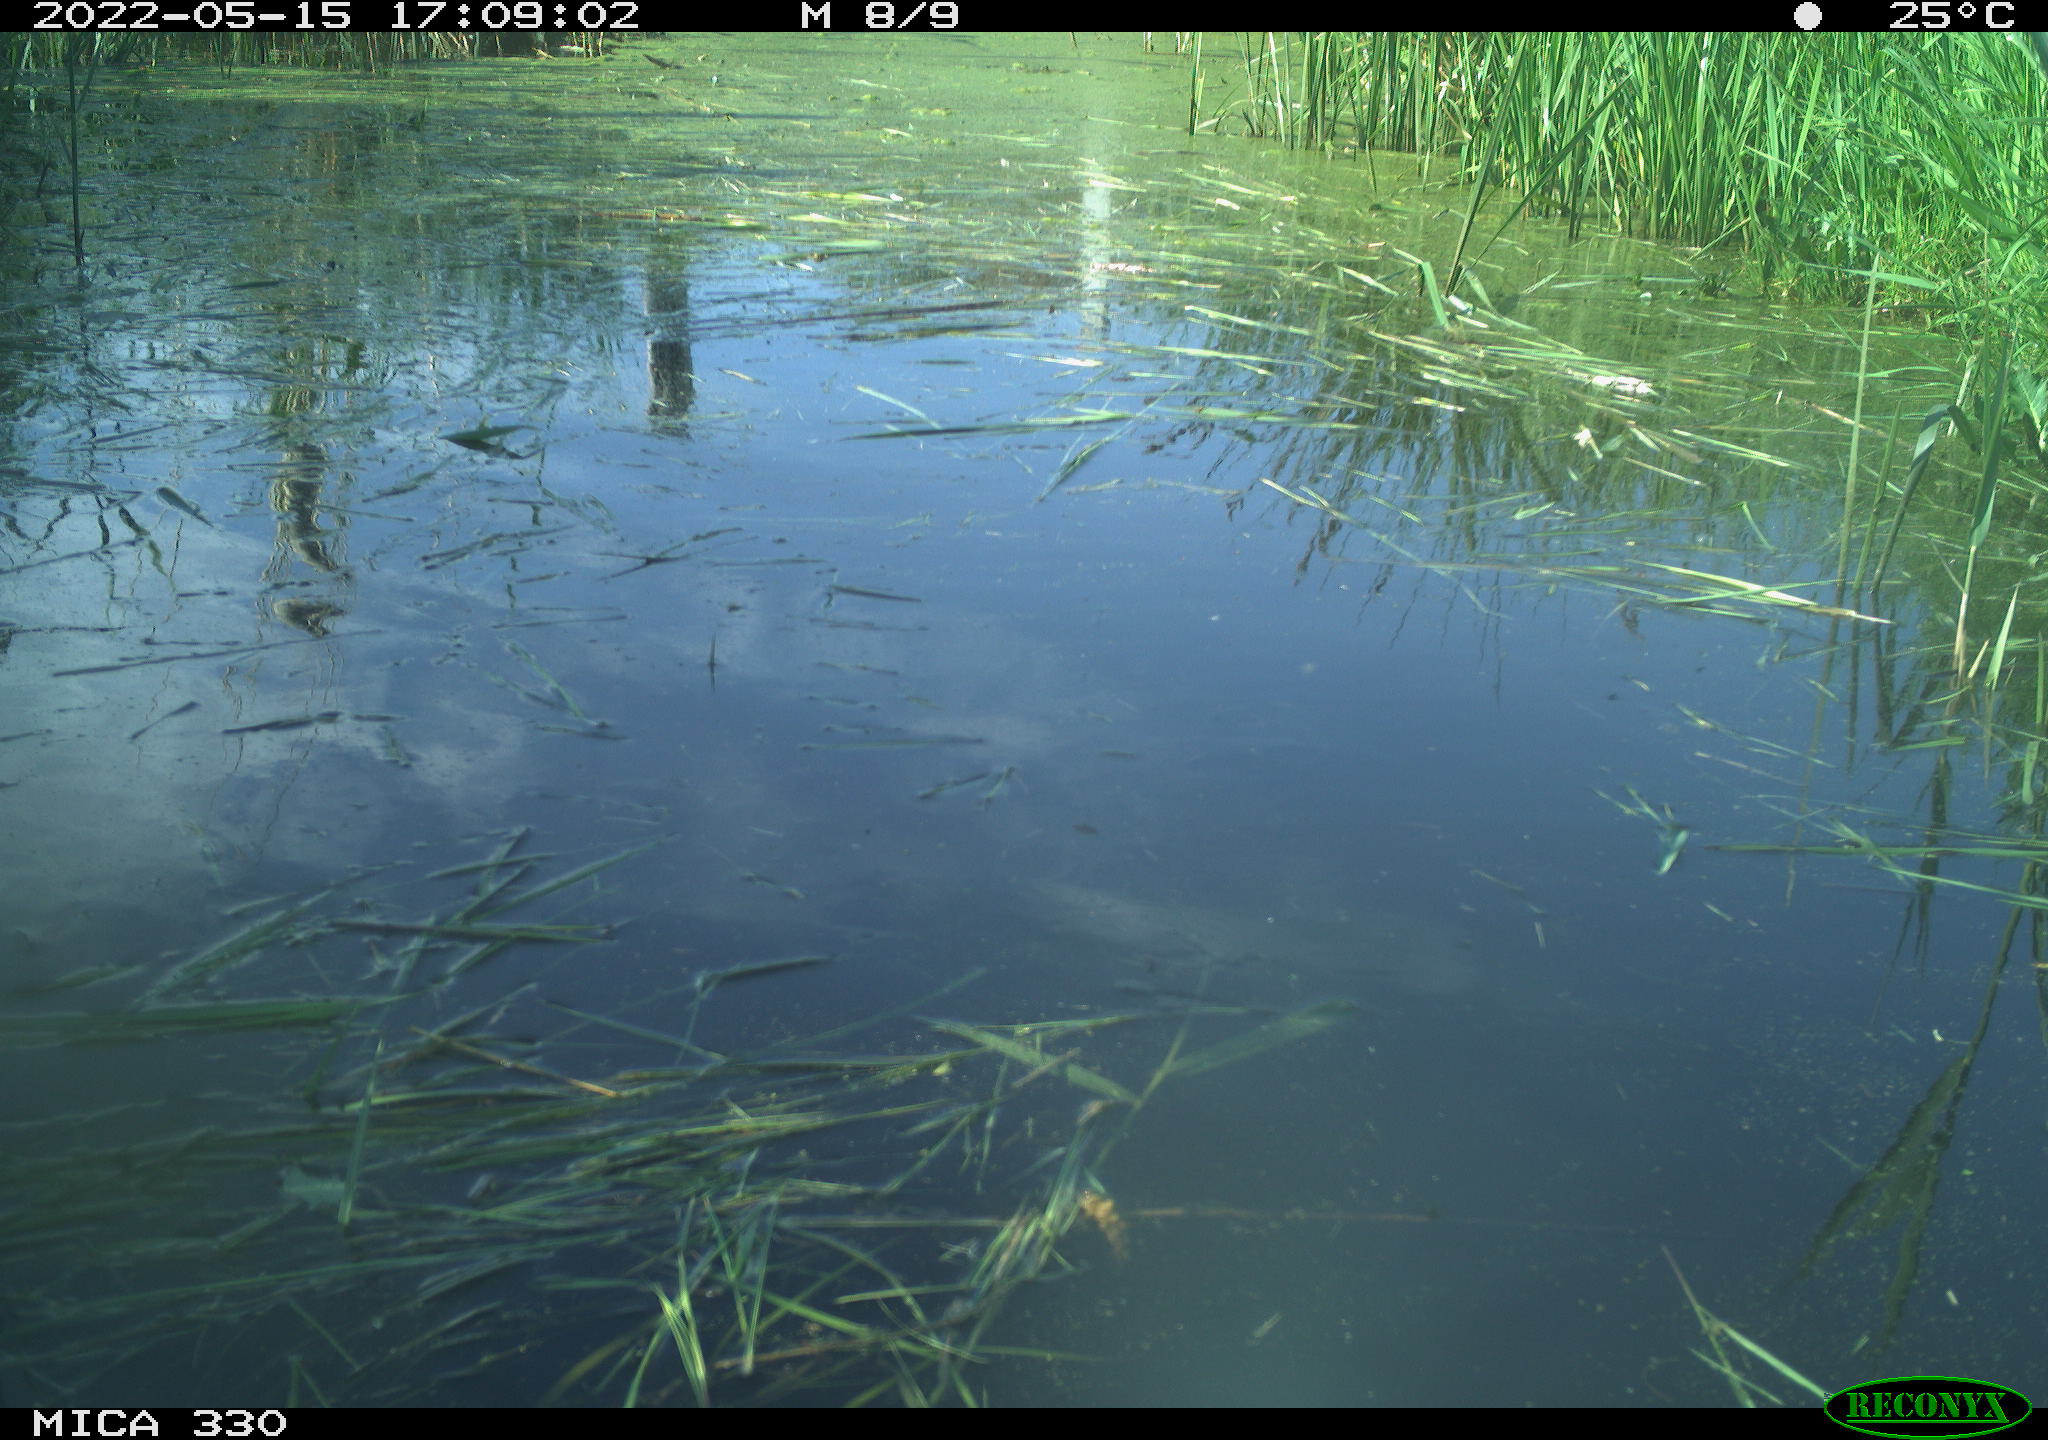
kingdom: Animalia
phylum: Chordata
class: Aves
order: Anseriformes
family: Anatidae
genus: Anas
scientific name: Anas platyrhynchos
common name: Mallard
